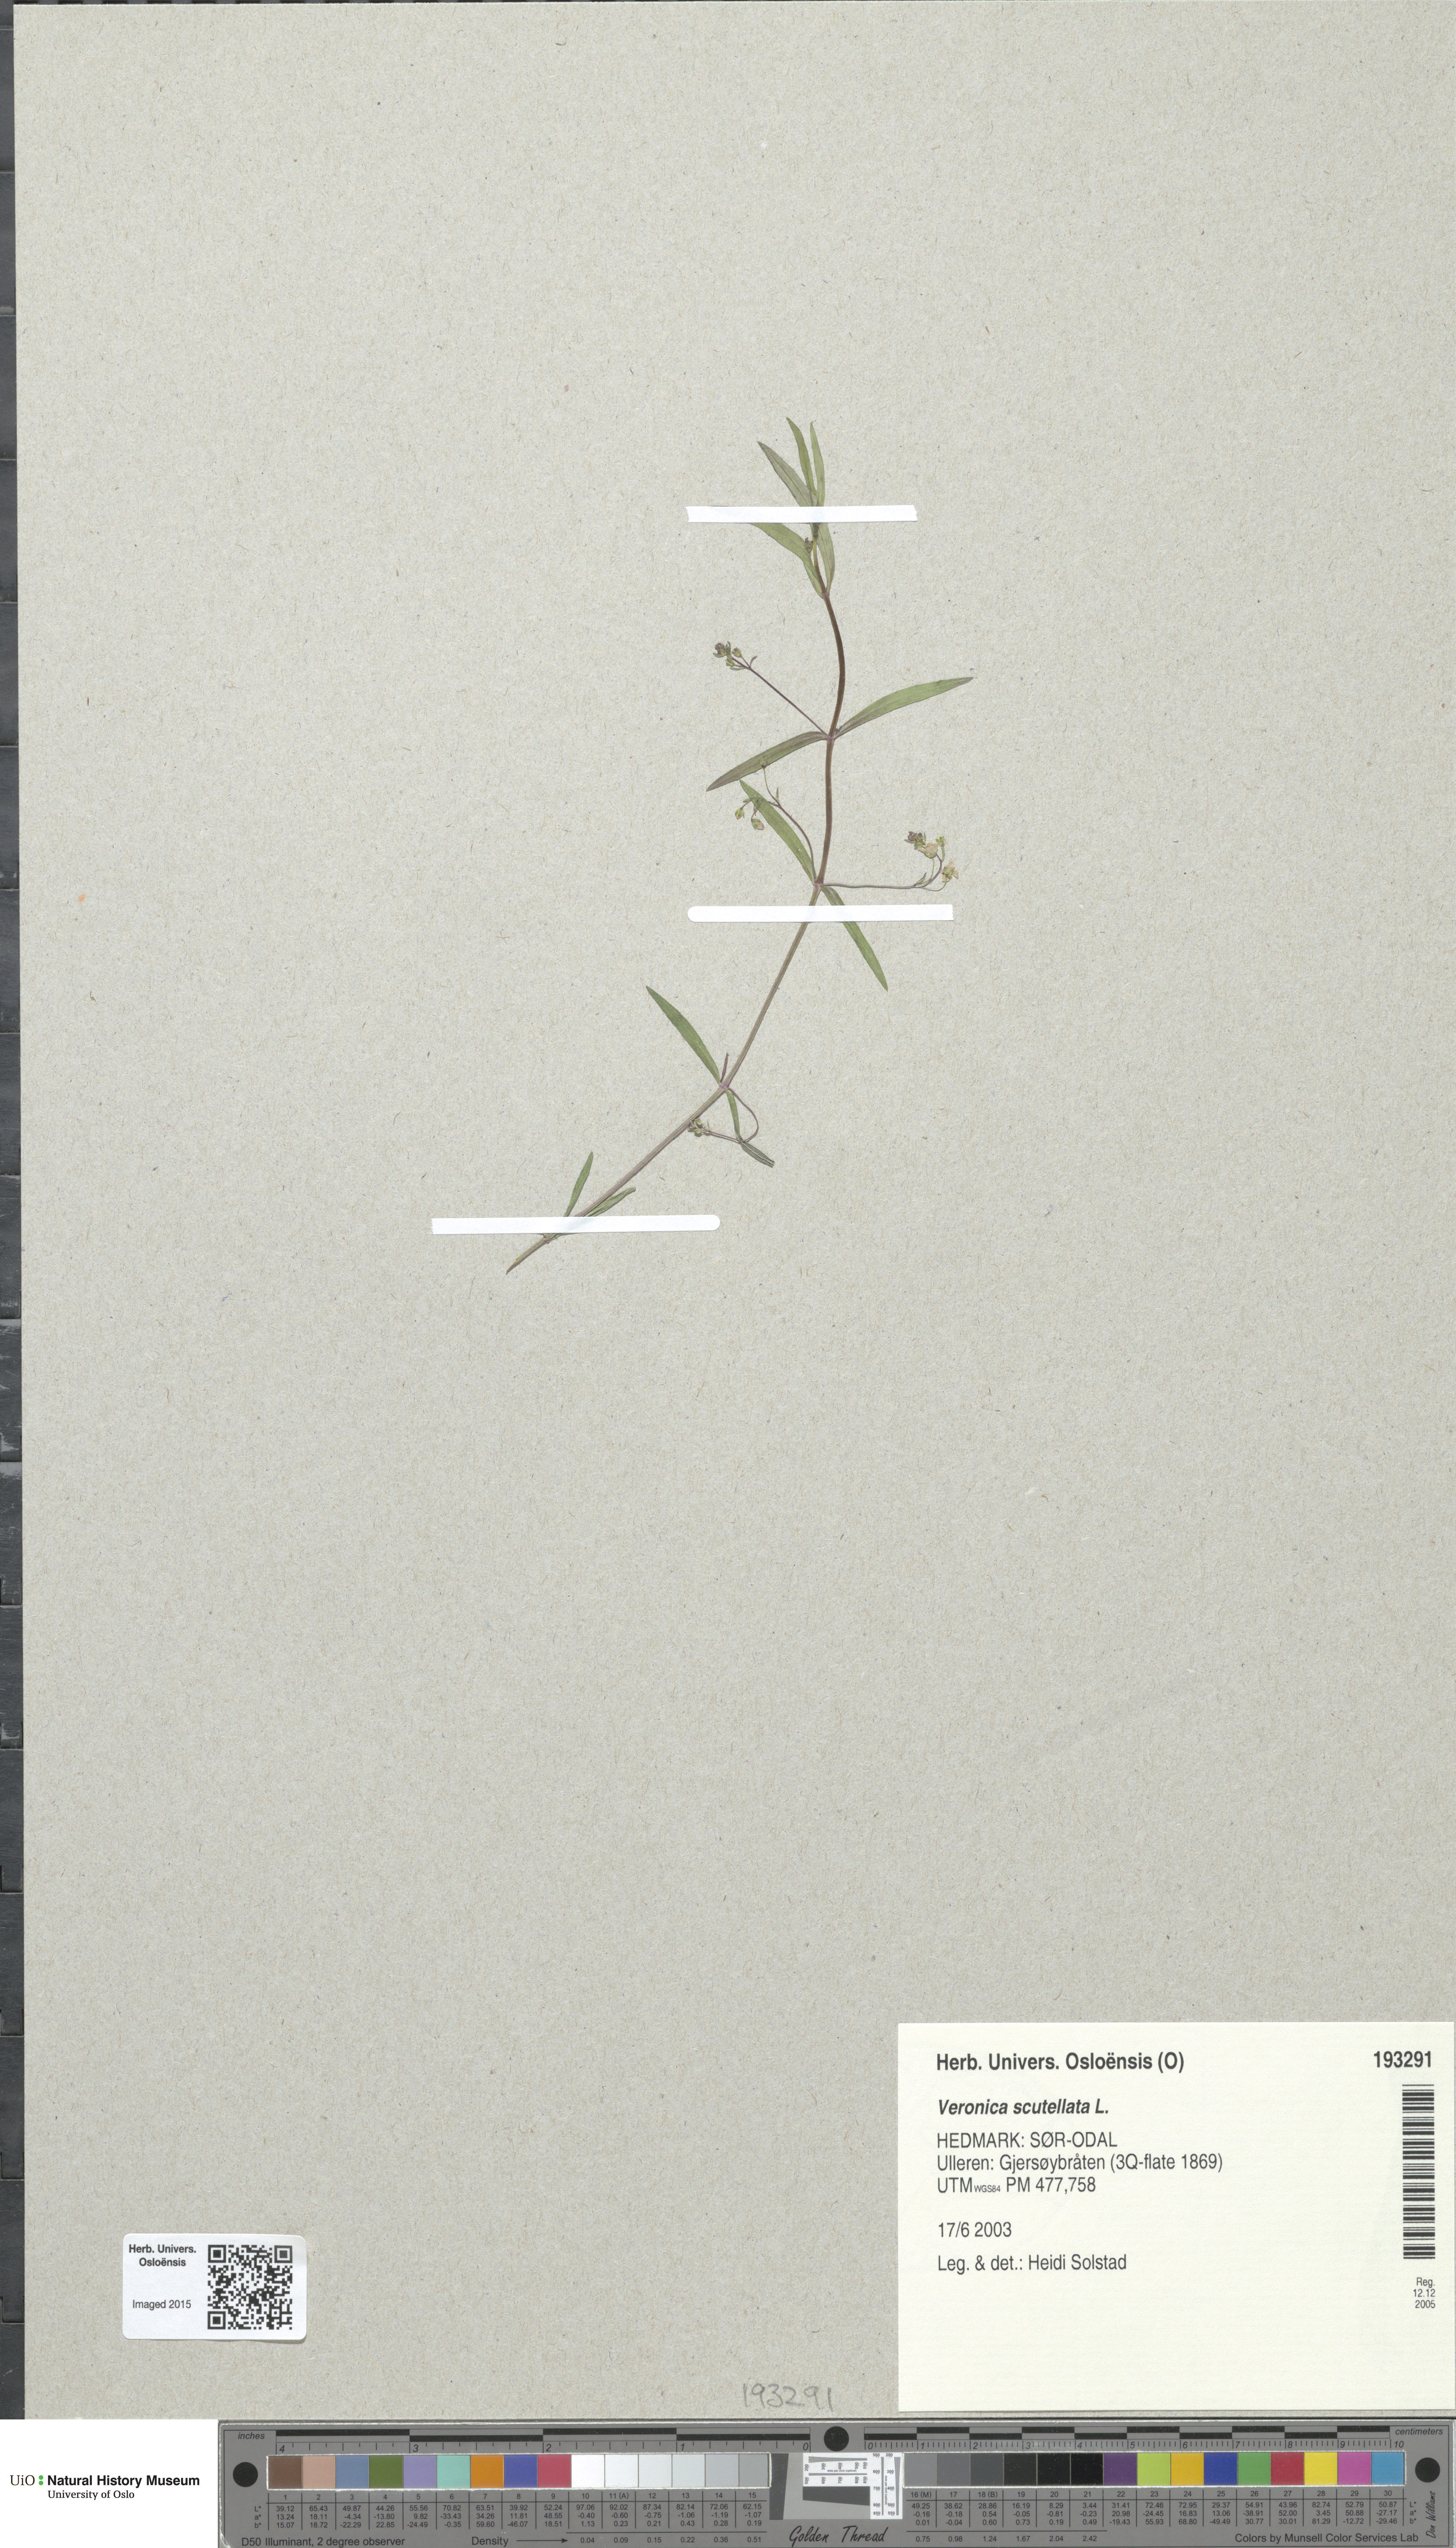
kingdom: Plantae
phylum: Tracheophyta
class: Magnoliopsida
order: Lamiales
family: Plantaginaceae
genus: Veronica
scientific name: Veronica scutellata
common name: Marsh speedwell
